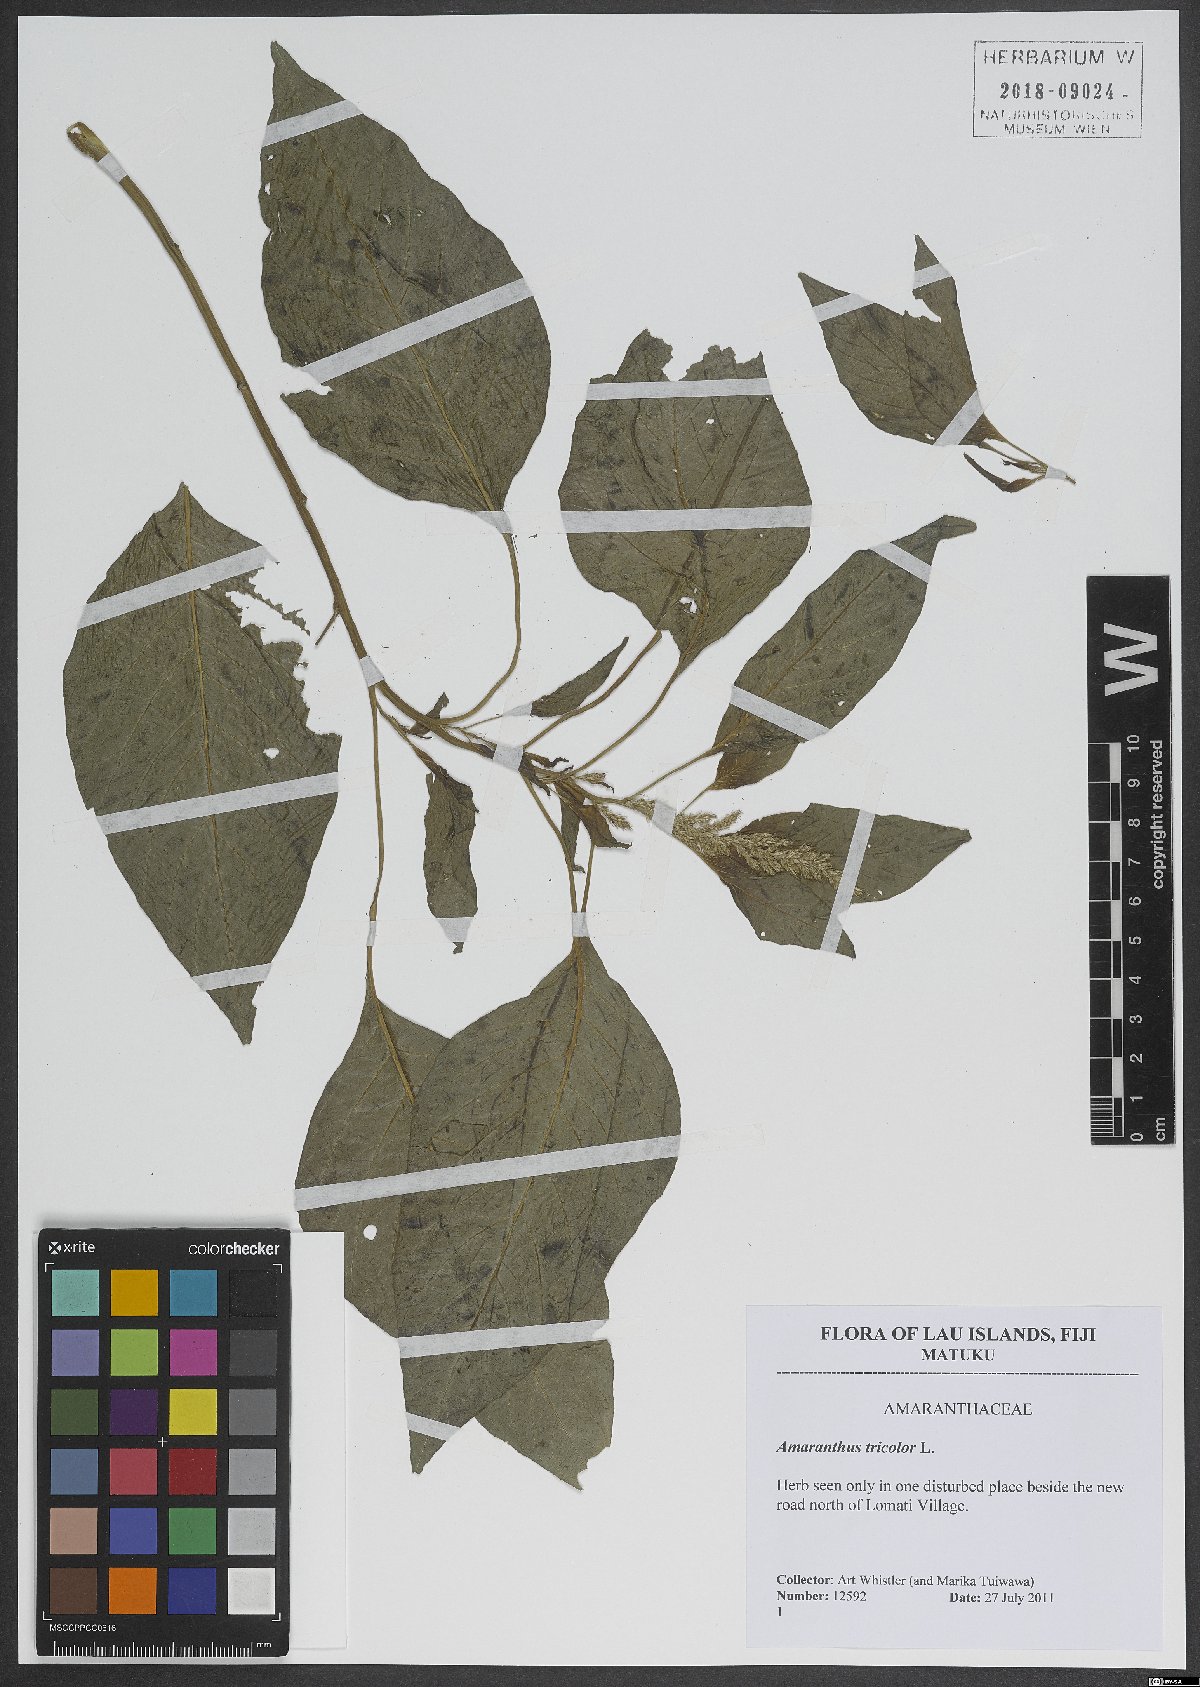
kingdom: Plantae
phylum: Tracheophyta
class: Magnoliopsida
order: Caryophyllales
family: Amaranthaceae
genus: Amaranthus
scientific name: Amaranthus tricolor
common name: Joseph's-coat
